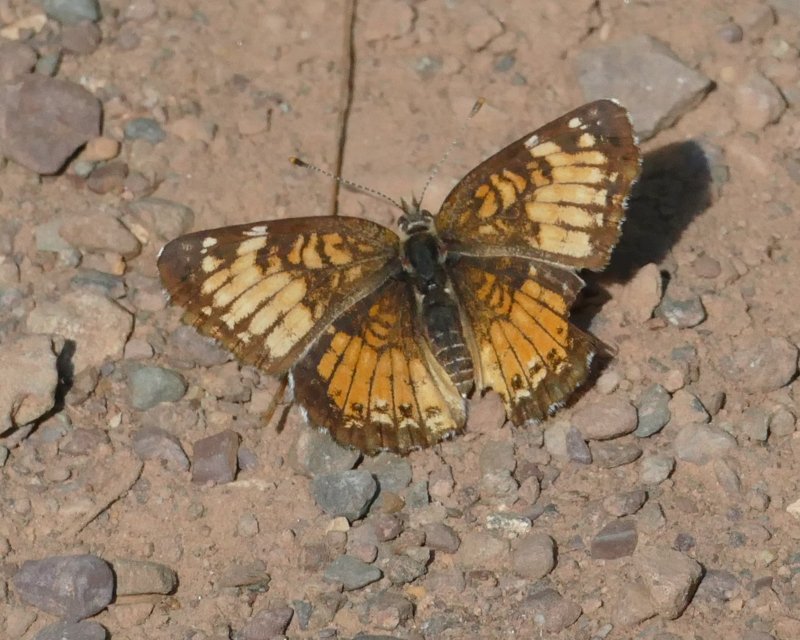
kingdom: Animalia
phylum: Arthropoda
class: Insecta
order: Lepidoptera
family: Nymphalidae
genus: Chlosyne
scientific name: Chlosyne harrisii
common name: Harris's Checkerspot
